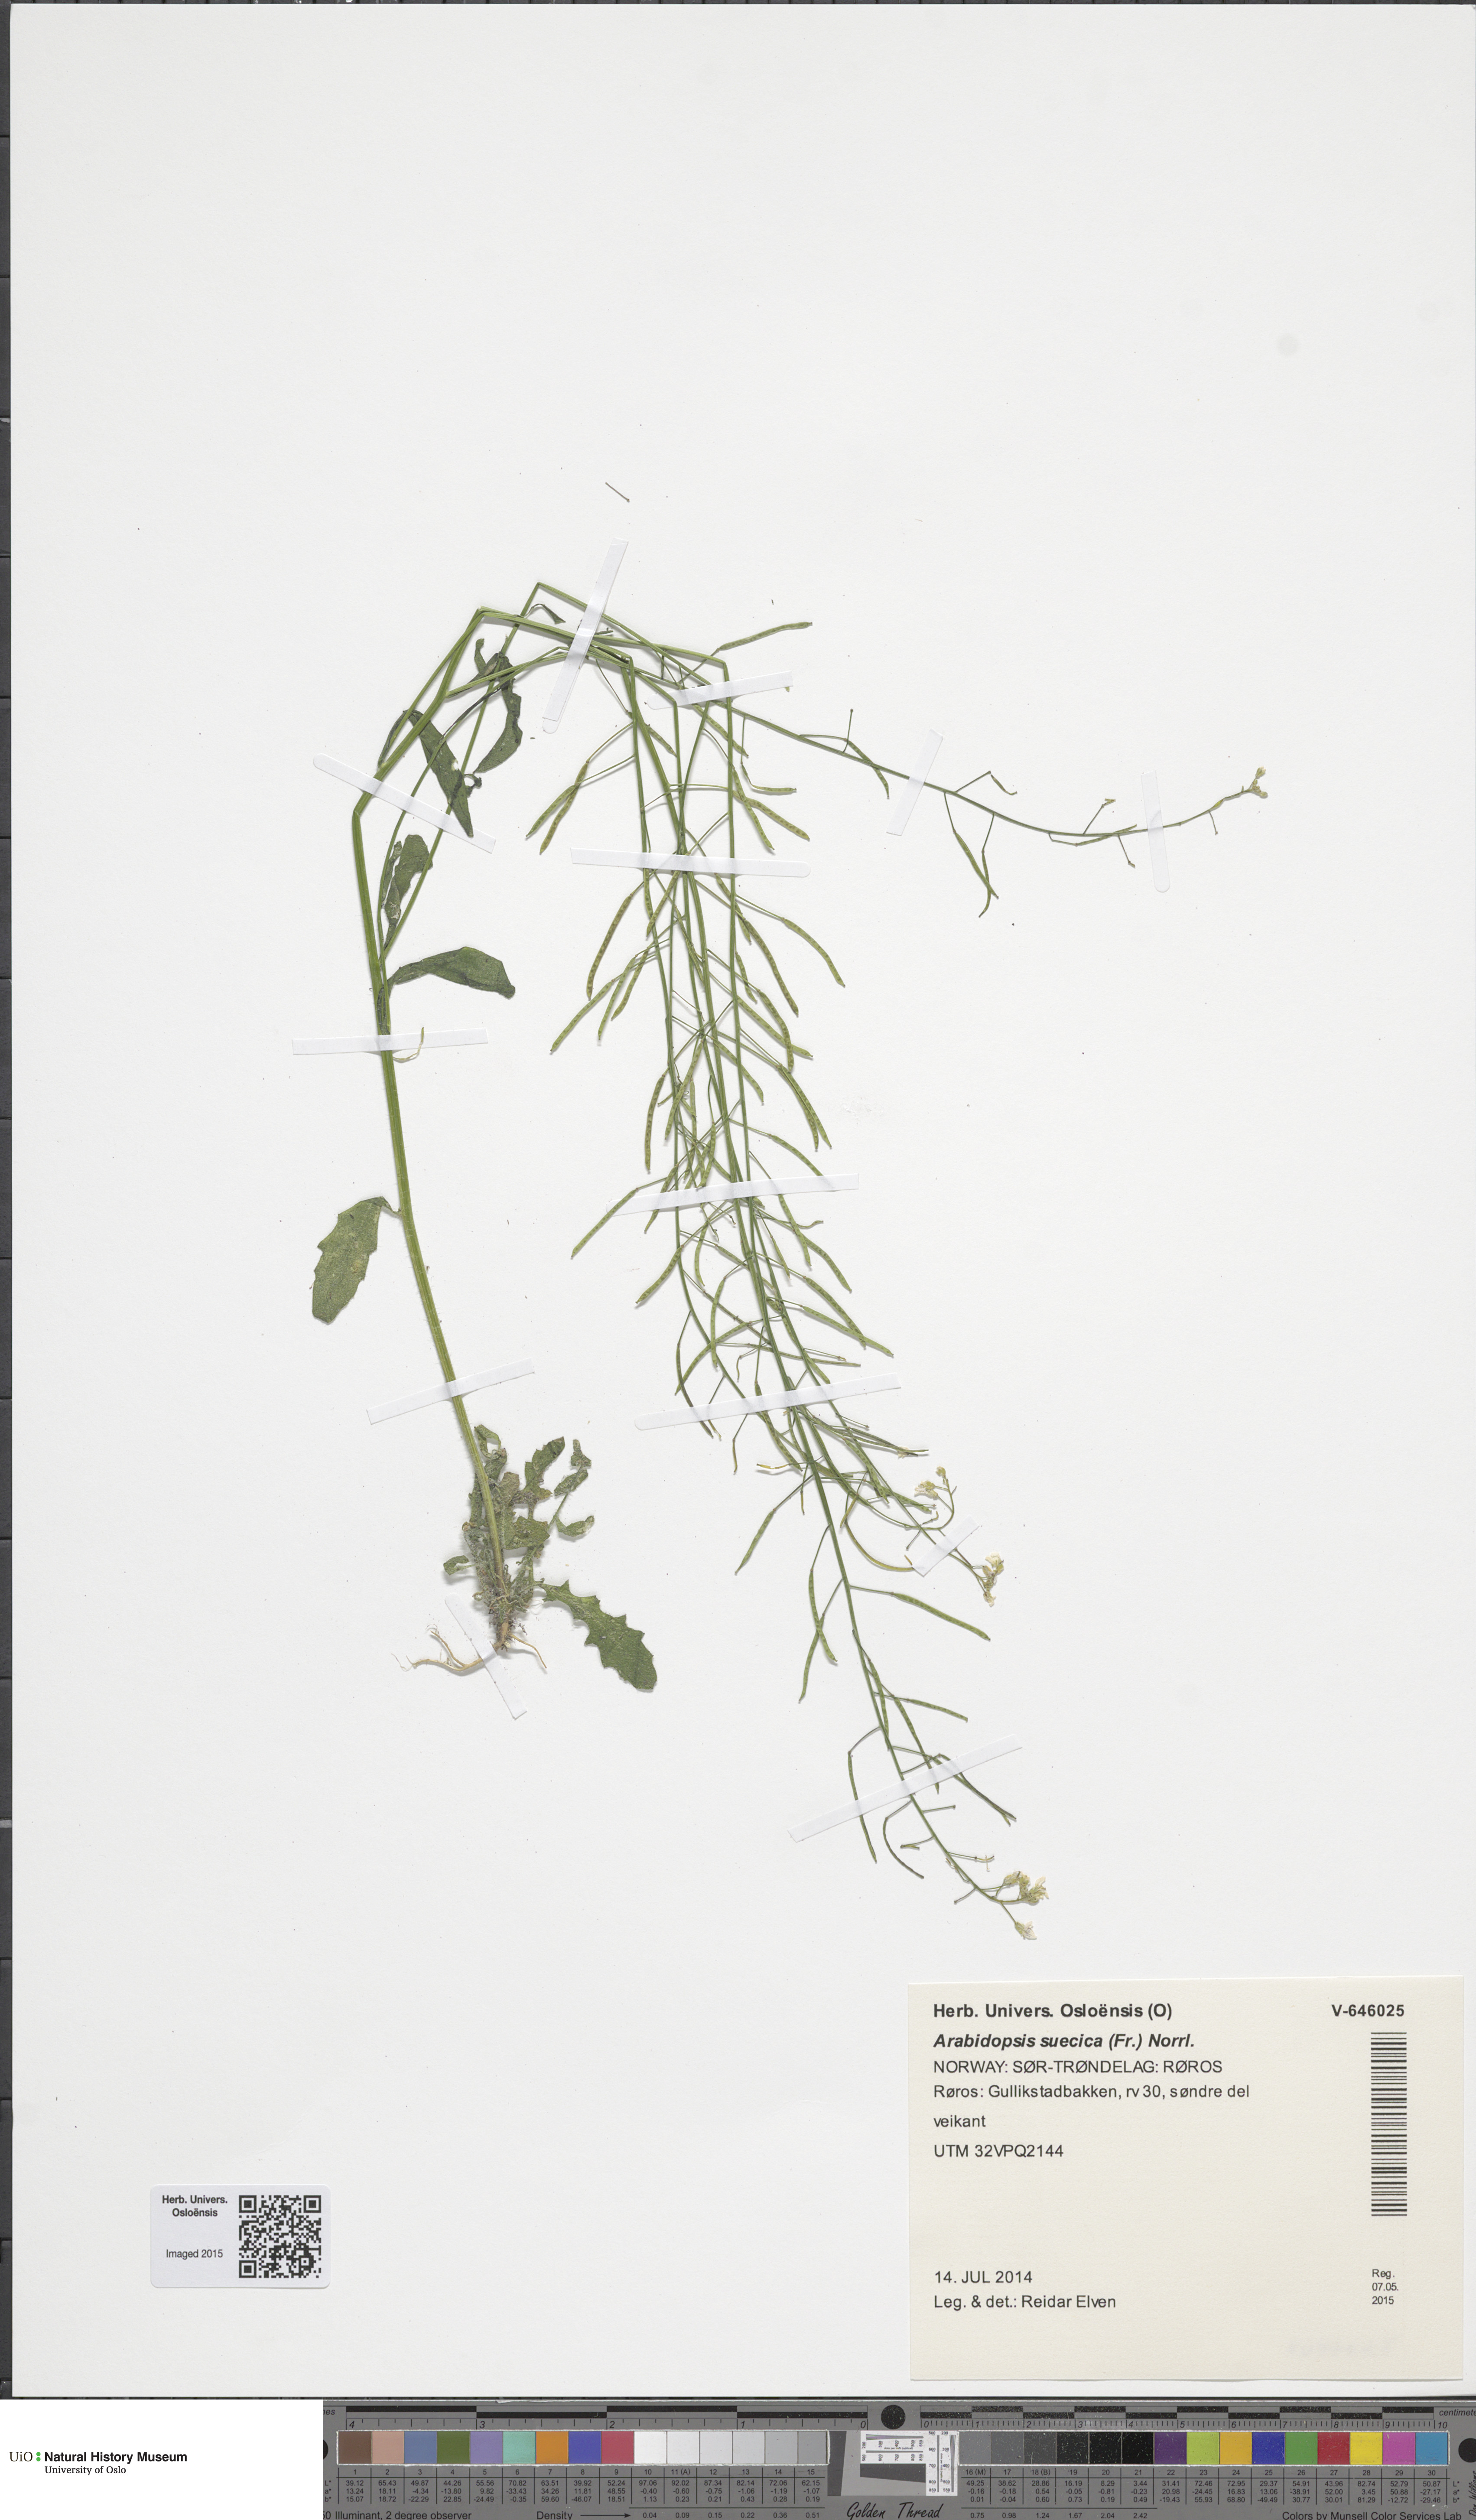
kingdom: Plantae
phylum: Tracheophyta
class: Magnoliopsida
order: Brassicales
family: Brassicaceae
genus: Arabidopsis
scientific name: Arabidopsis suecica
